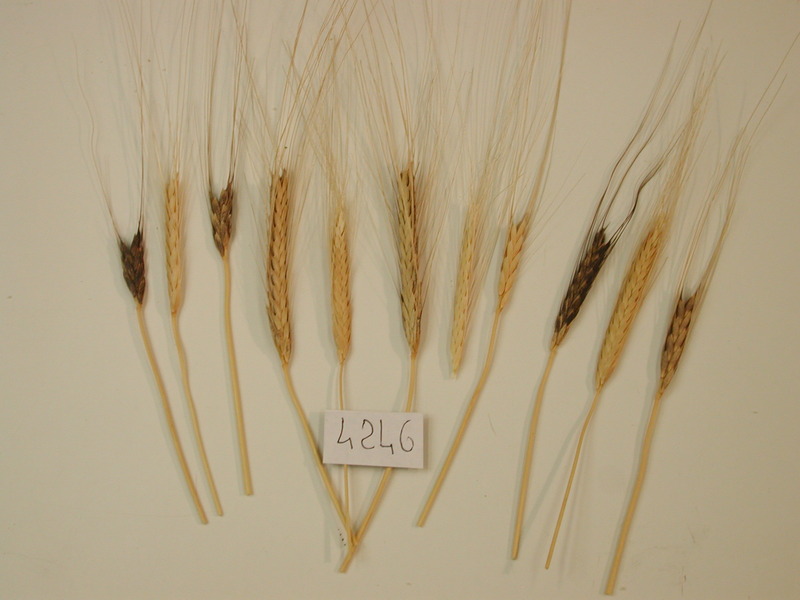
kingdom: Plantae
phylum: Tracheophyta
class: Liliopsida
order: Poales
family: Poaceae
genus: Triticum
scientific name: Triticum monococcum
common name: Wheat
